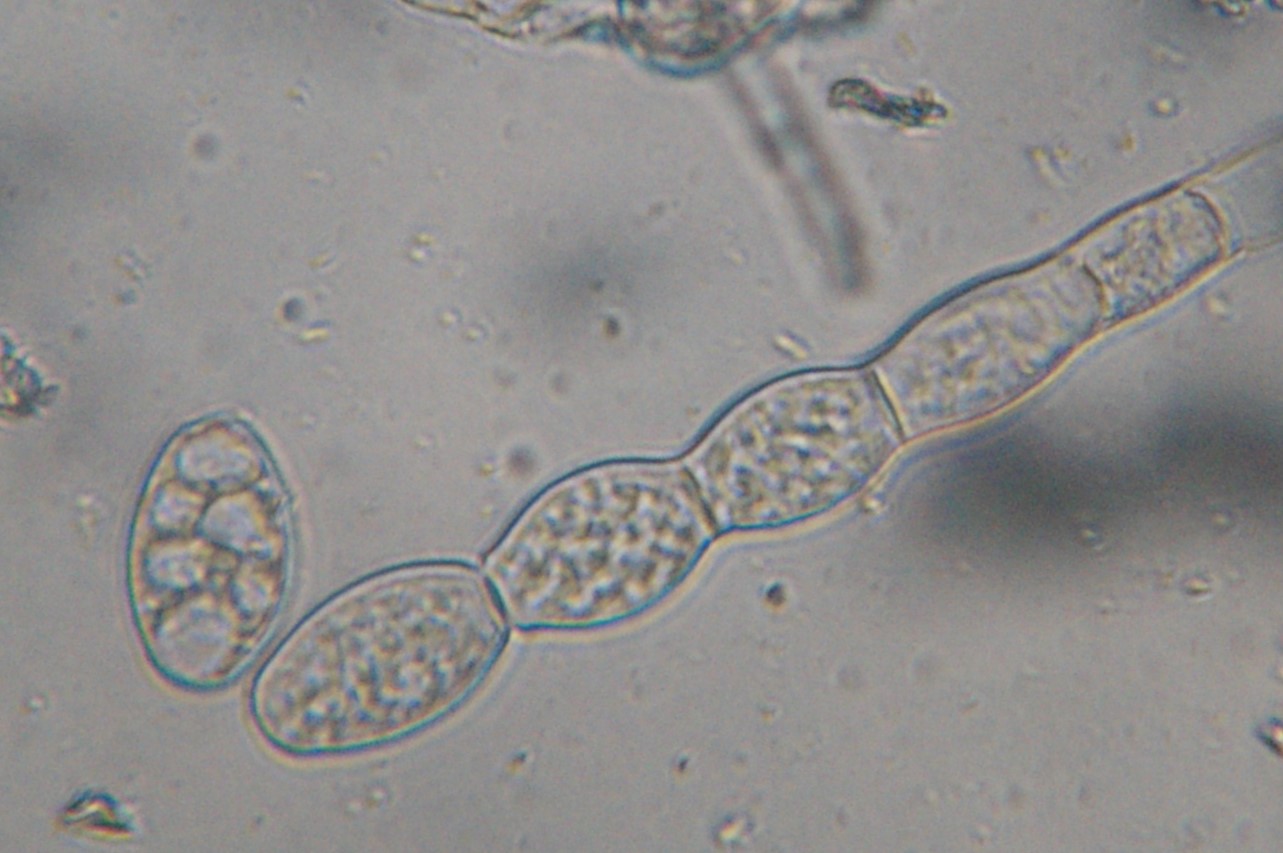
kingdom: Fungi
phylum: Ascomycota
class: Leotiomycetes
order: Helotiales
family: Erysiphaceae
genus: Golovinomyces
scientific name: Golovinomyces asterum
